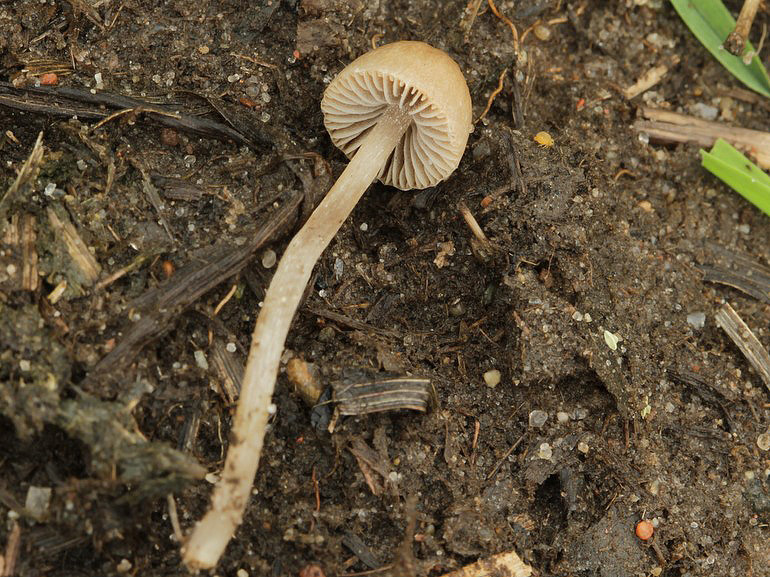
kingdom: Fungi
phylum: Basidiomycota
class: Agaricomycetes
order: Agaricales
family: Psathyrellaceae
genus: Psathyrella
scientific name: Psathyrella potteri
